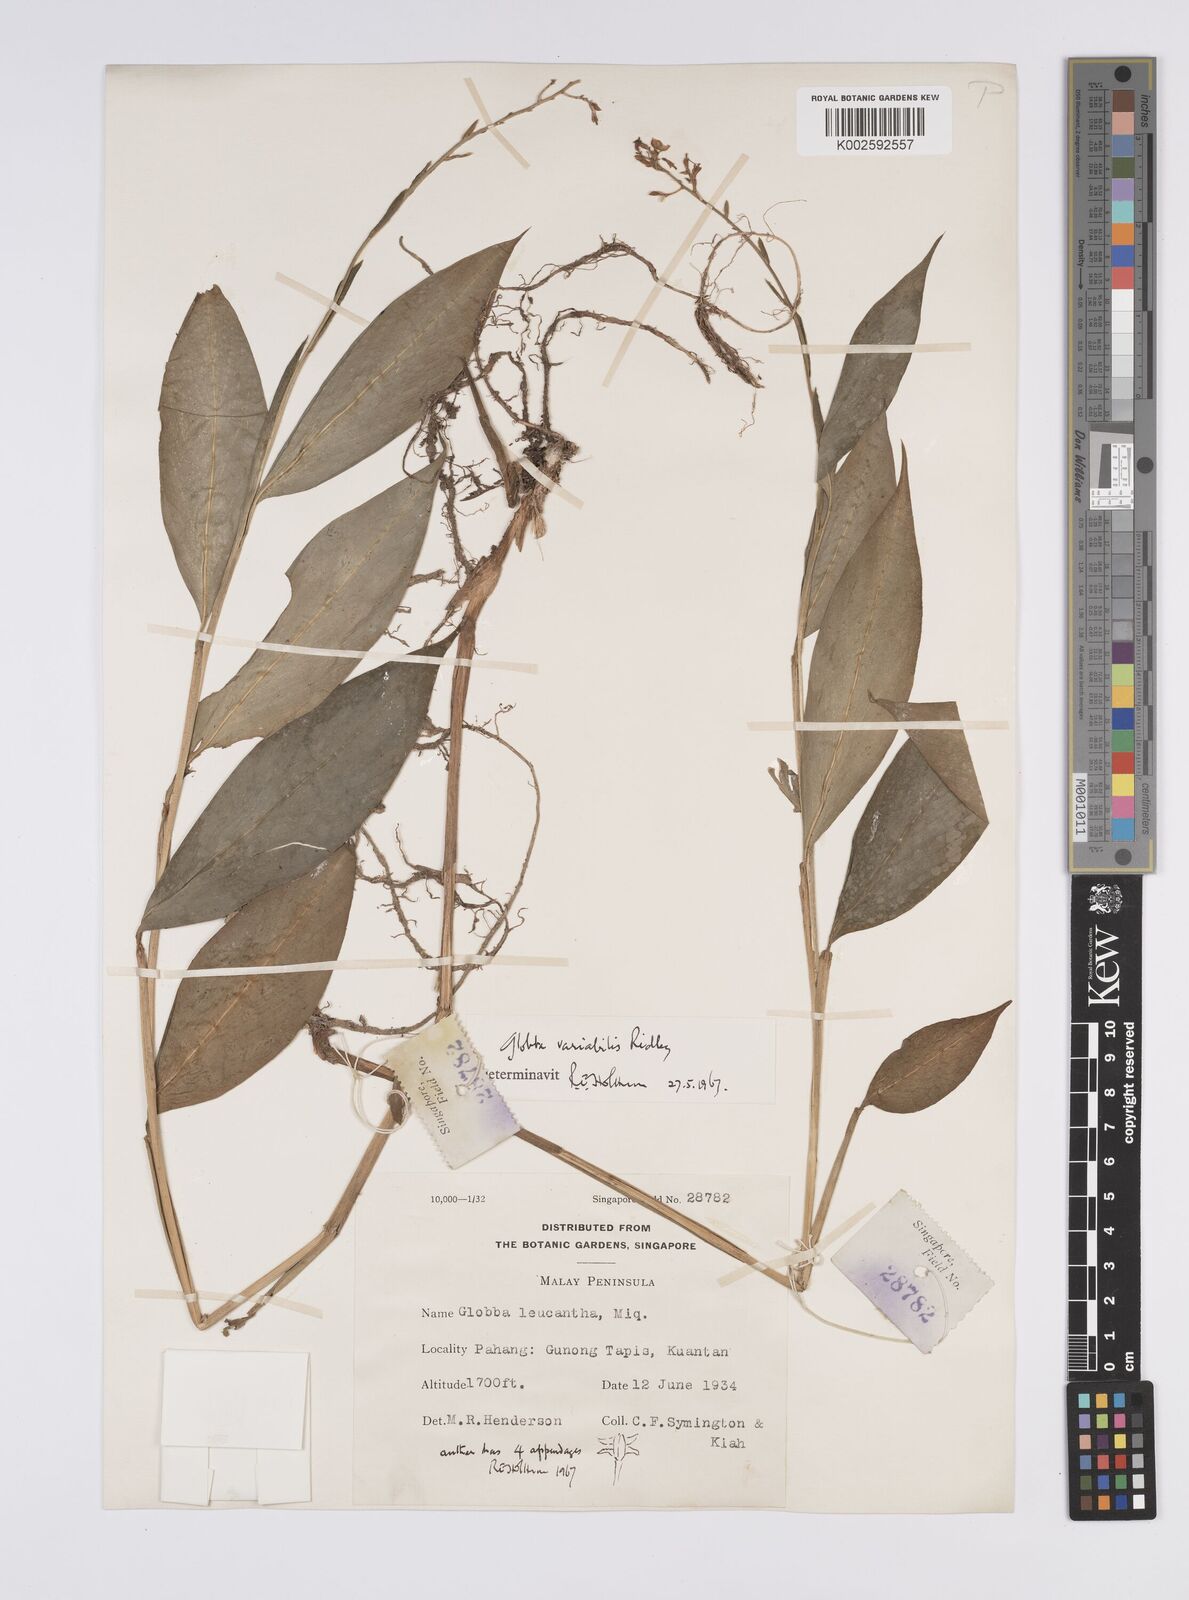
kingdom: Plantae
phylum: Tracheophyta
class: Liliopsida
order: Zingiberales
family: Zingiberaceae
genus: Globba
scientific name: Globba variabilis
